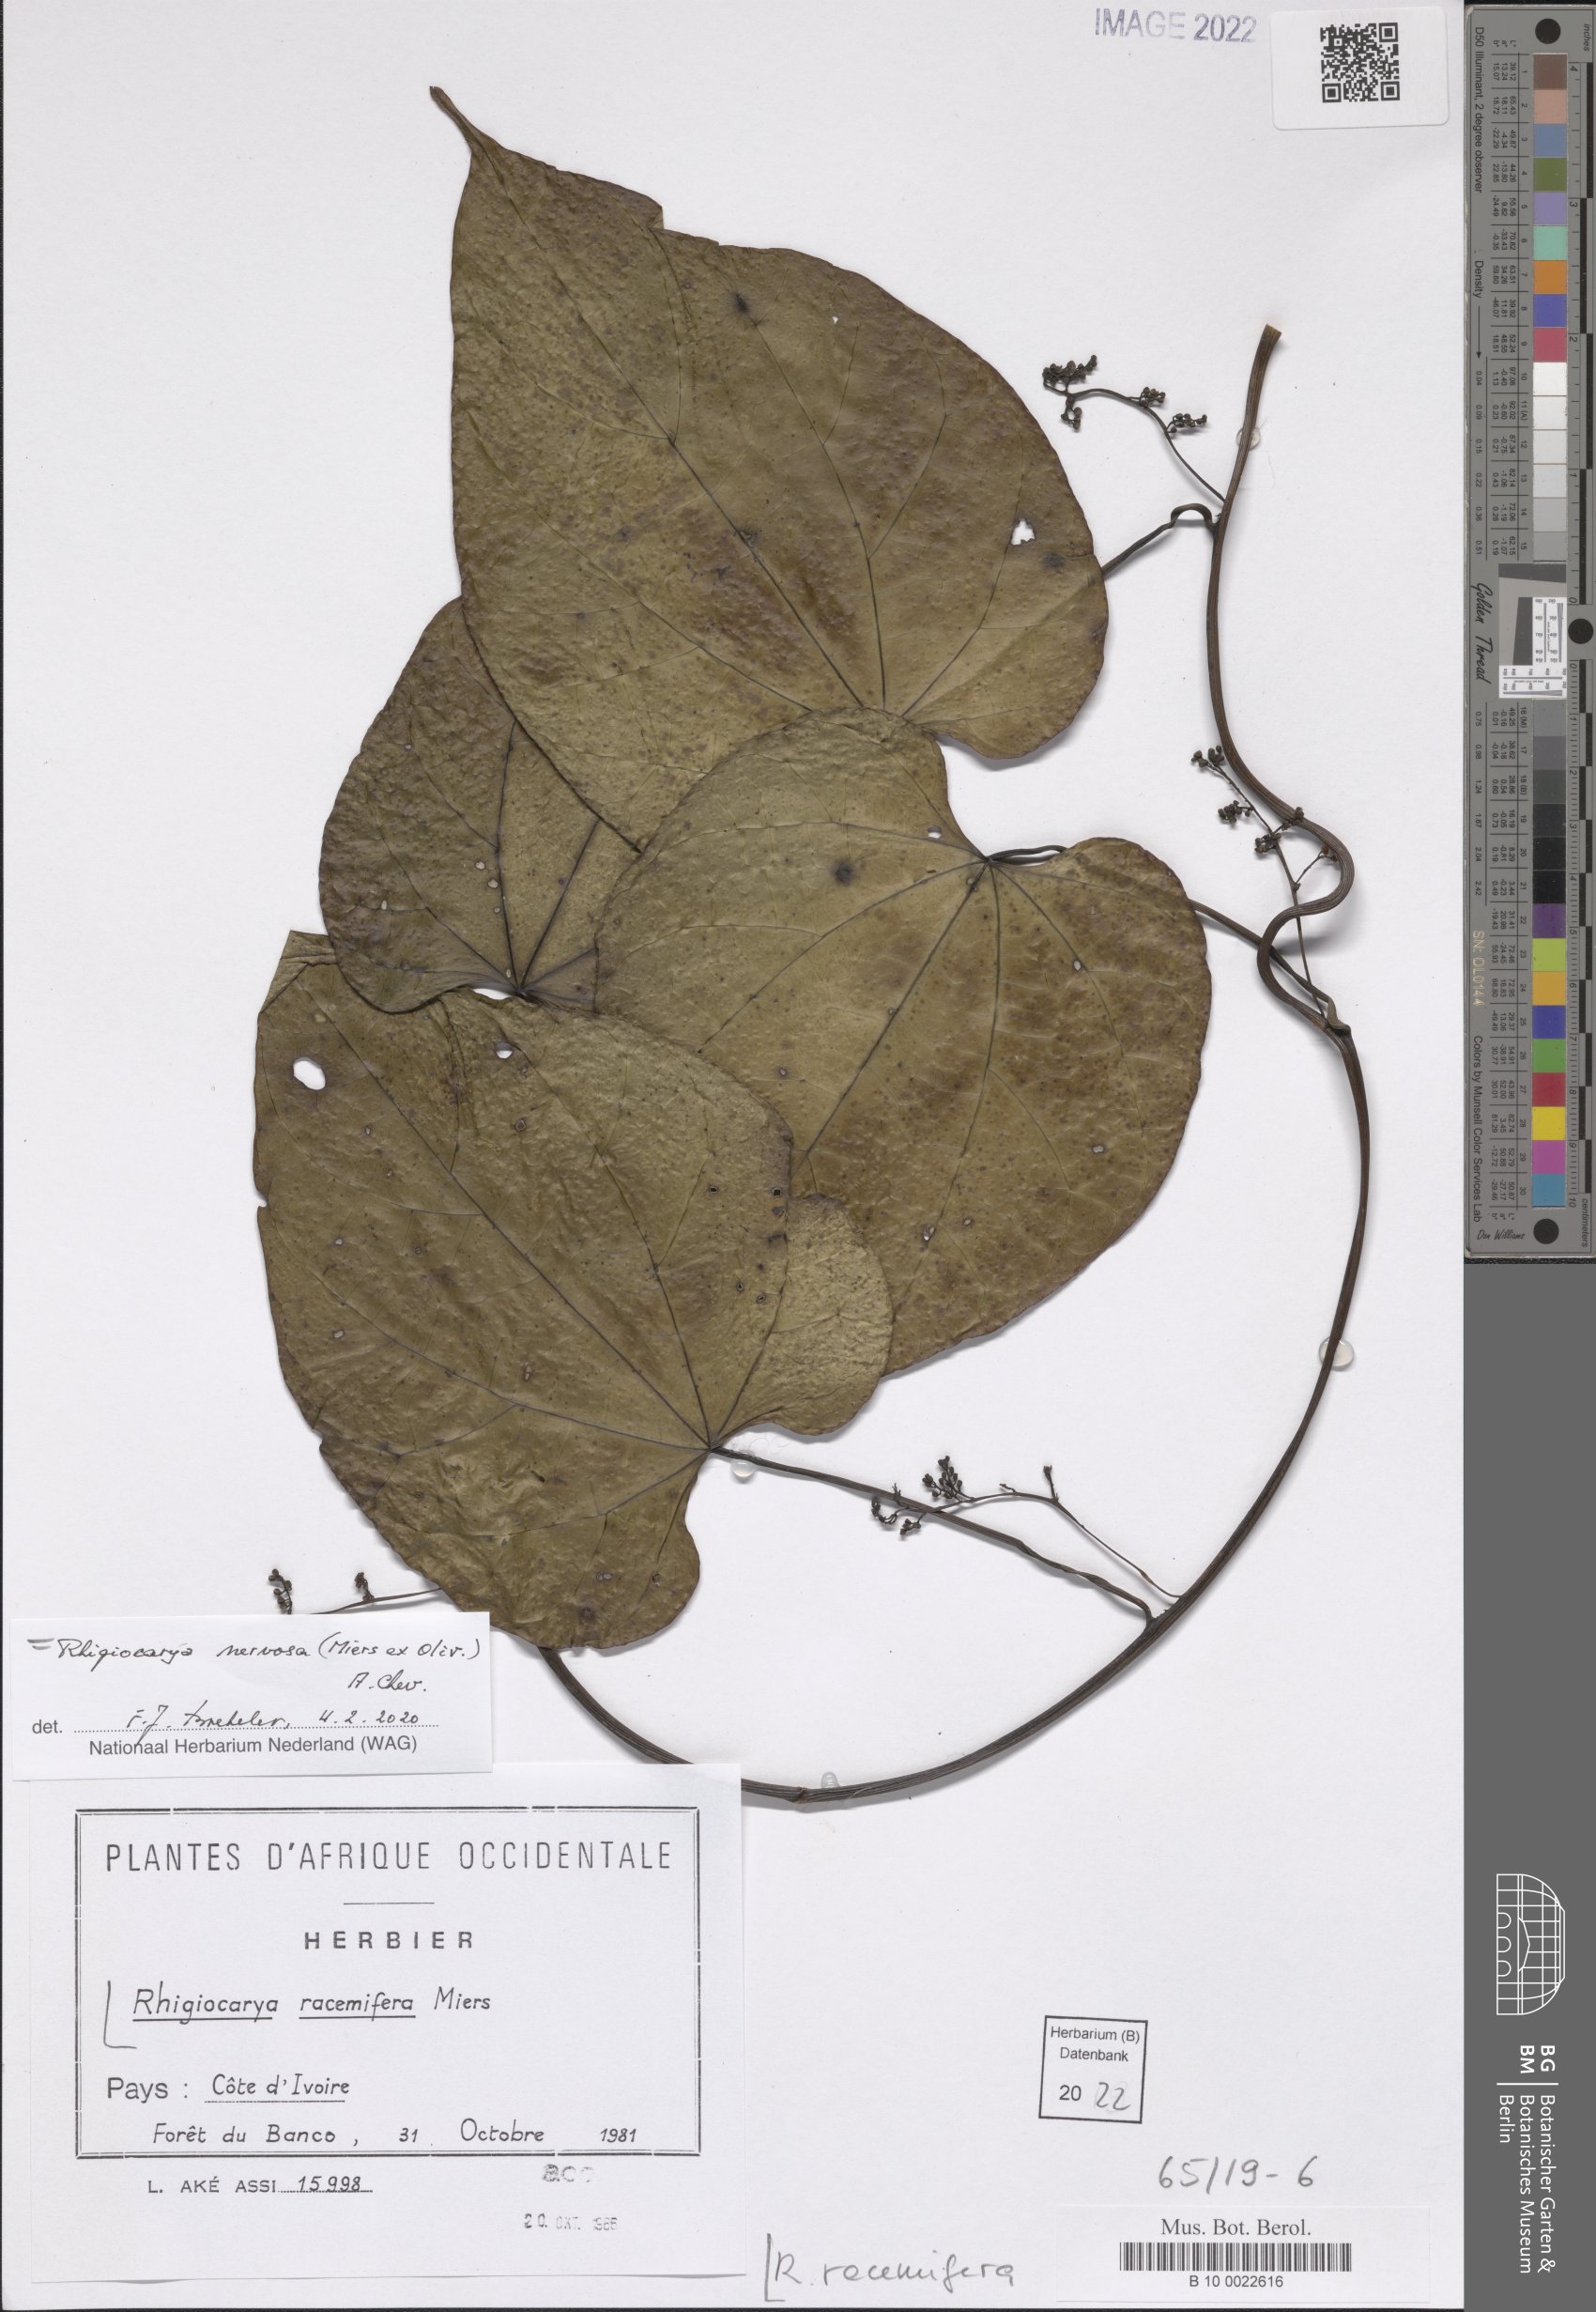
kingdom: Plantae
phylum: Tracheophyta
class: Magnoliopsida
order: Ranunculales
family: Menispermaceae
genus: Rhigiocarya
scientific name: Rhigiocarya racemifera
